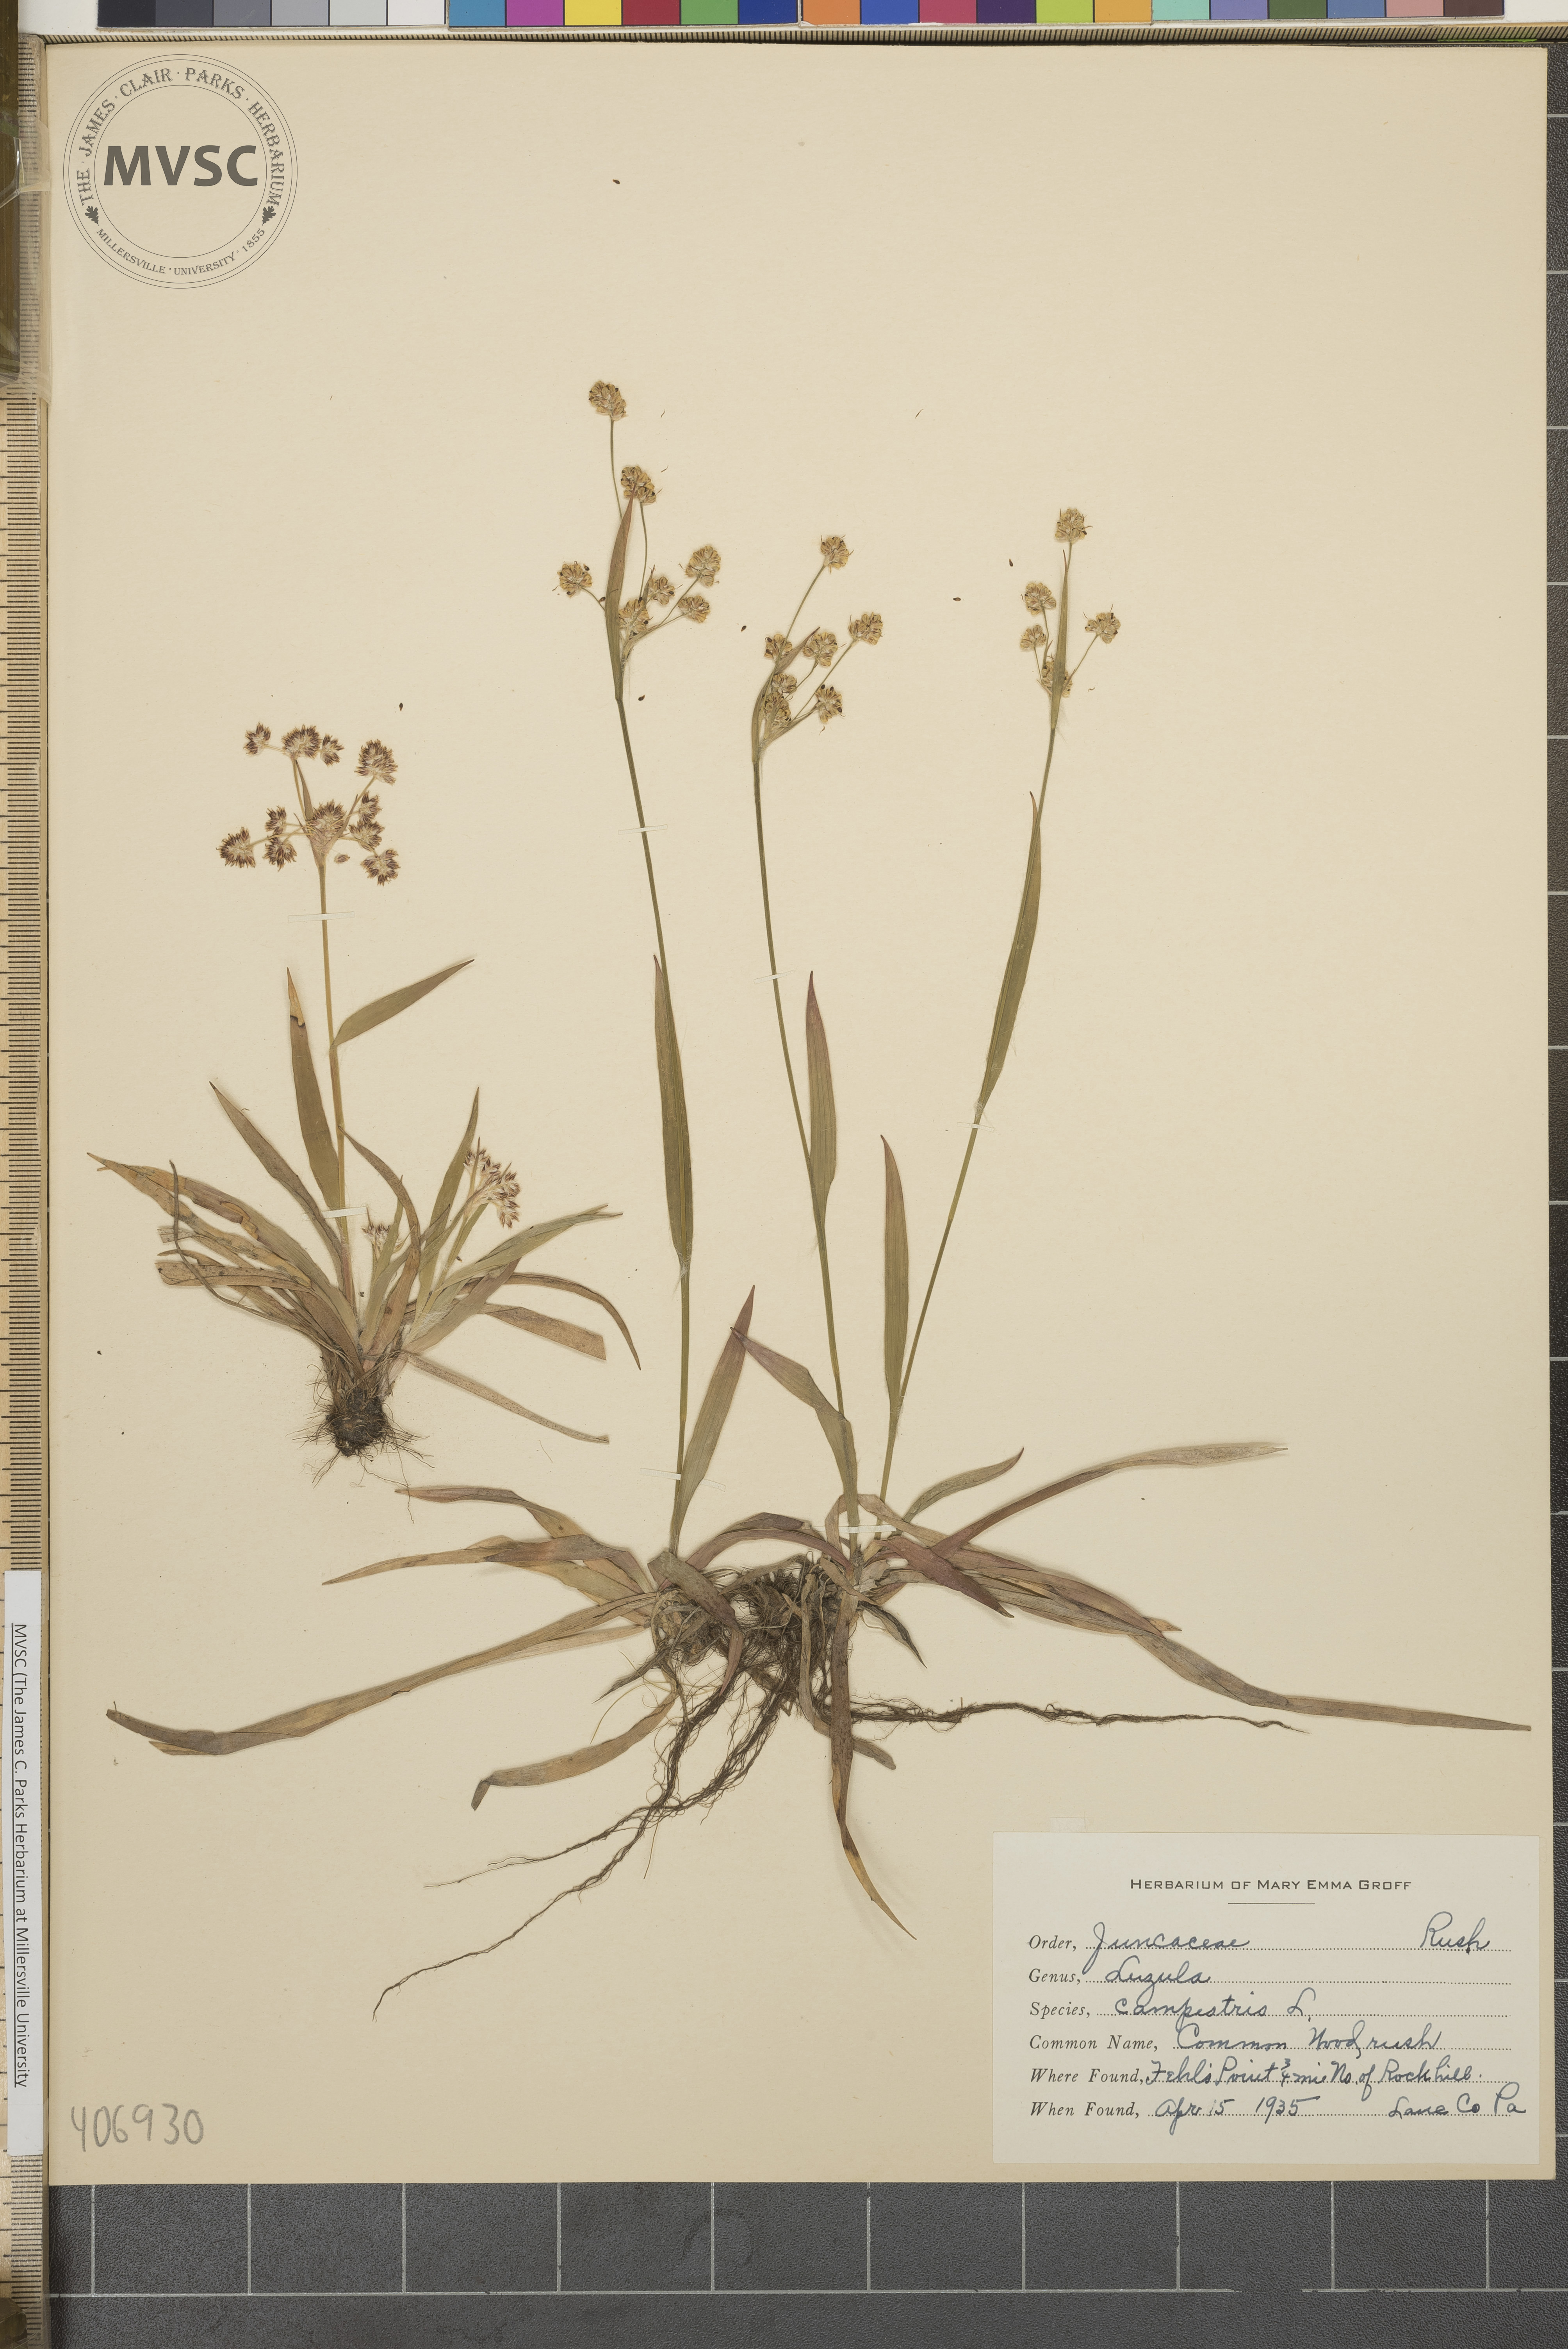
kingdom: Plantae
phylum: Tracheophyta
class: Liliopsida
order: Poales
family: Juncaceae
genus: Luzula
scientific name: Luzula echinata
